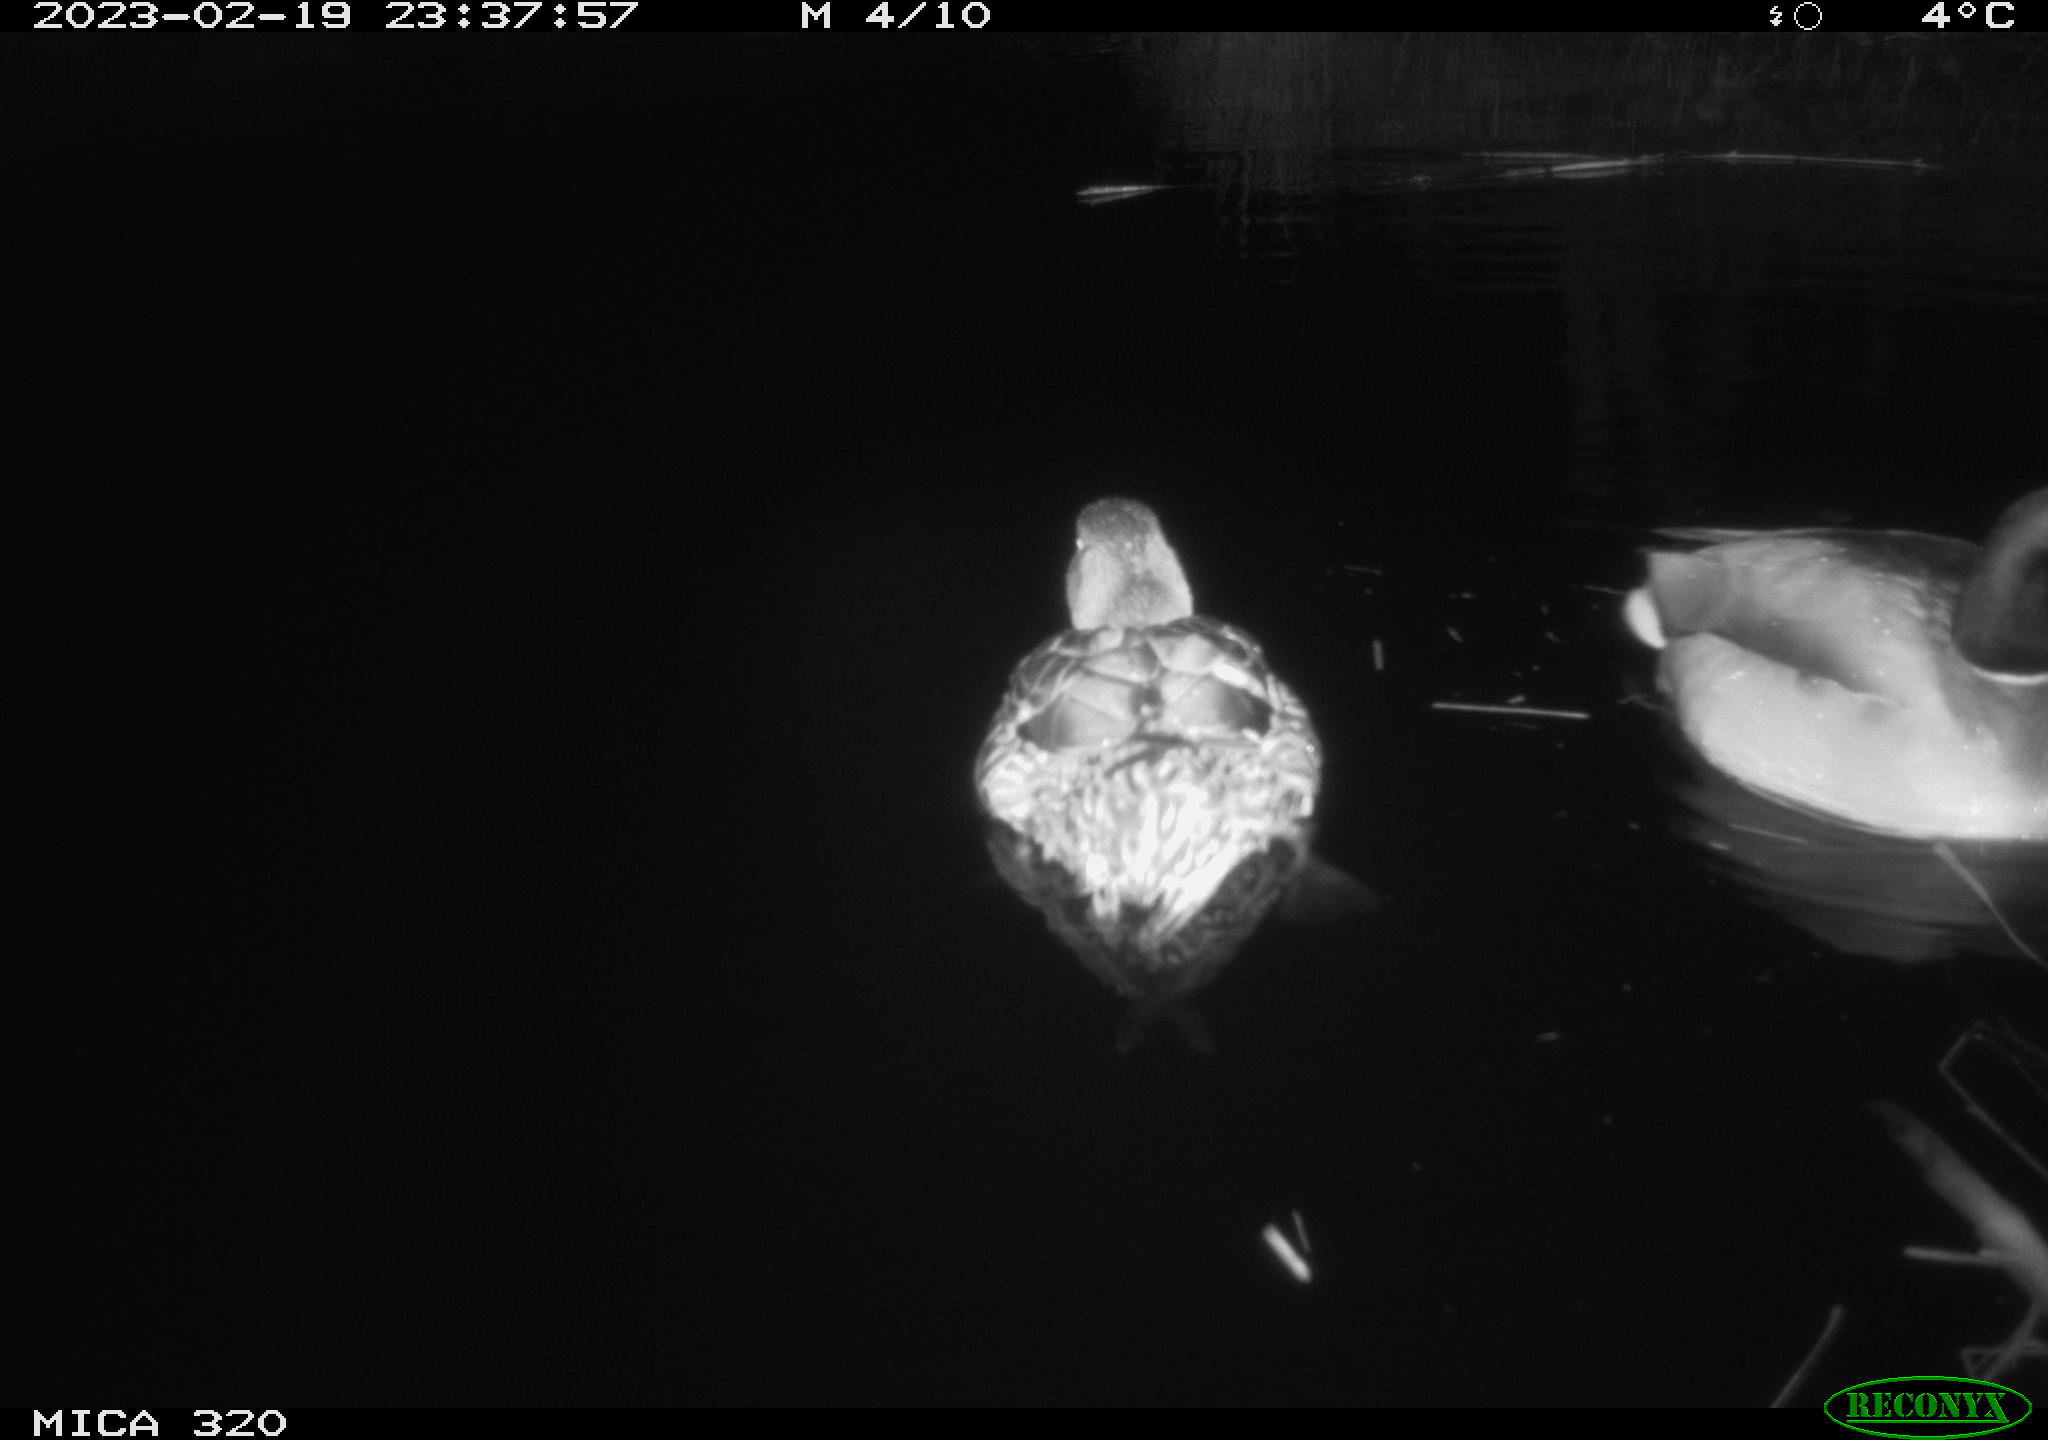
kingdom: Animalia
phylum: Chordata
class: Aves
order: Anseriformes
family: Anatidae
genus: Anas
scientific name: Anas
